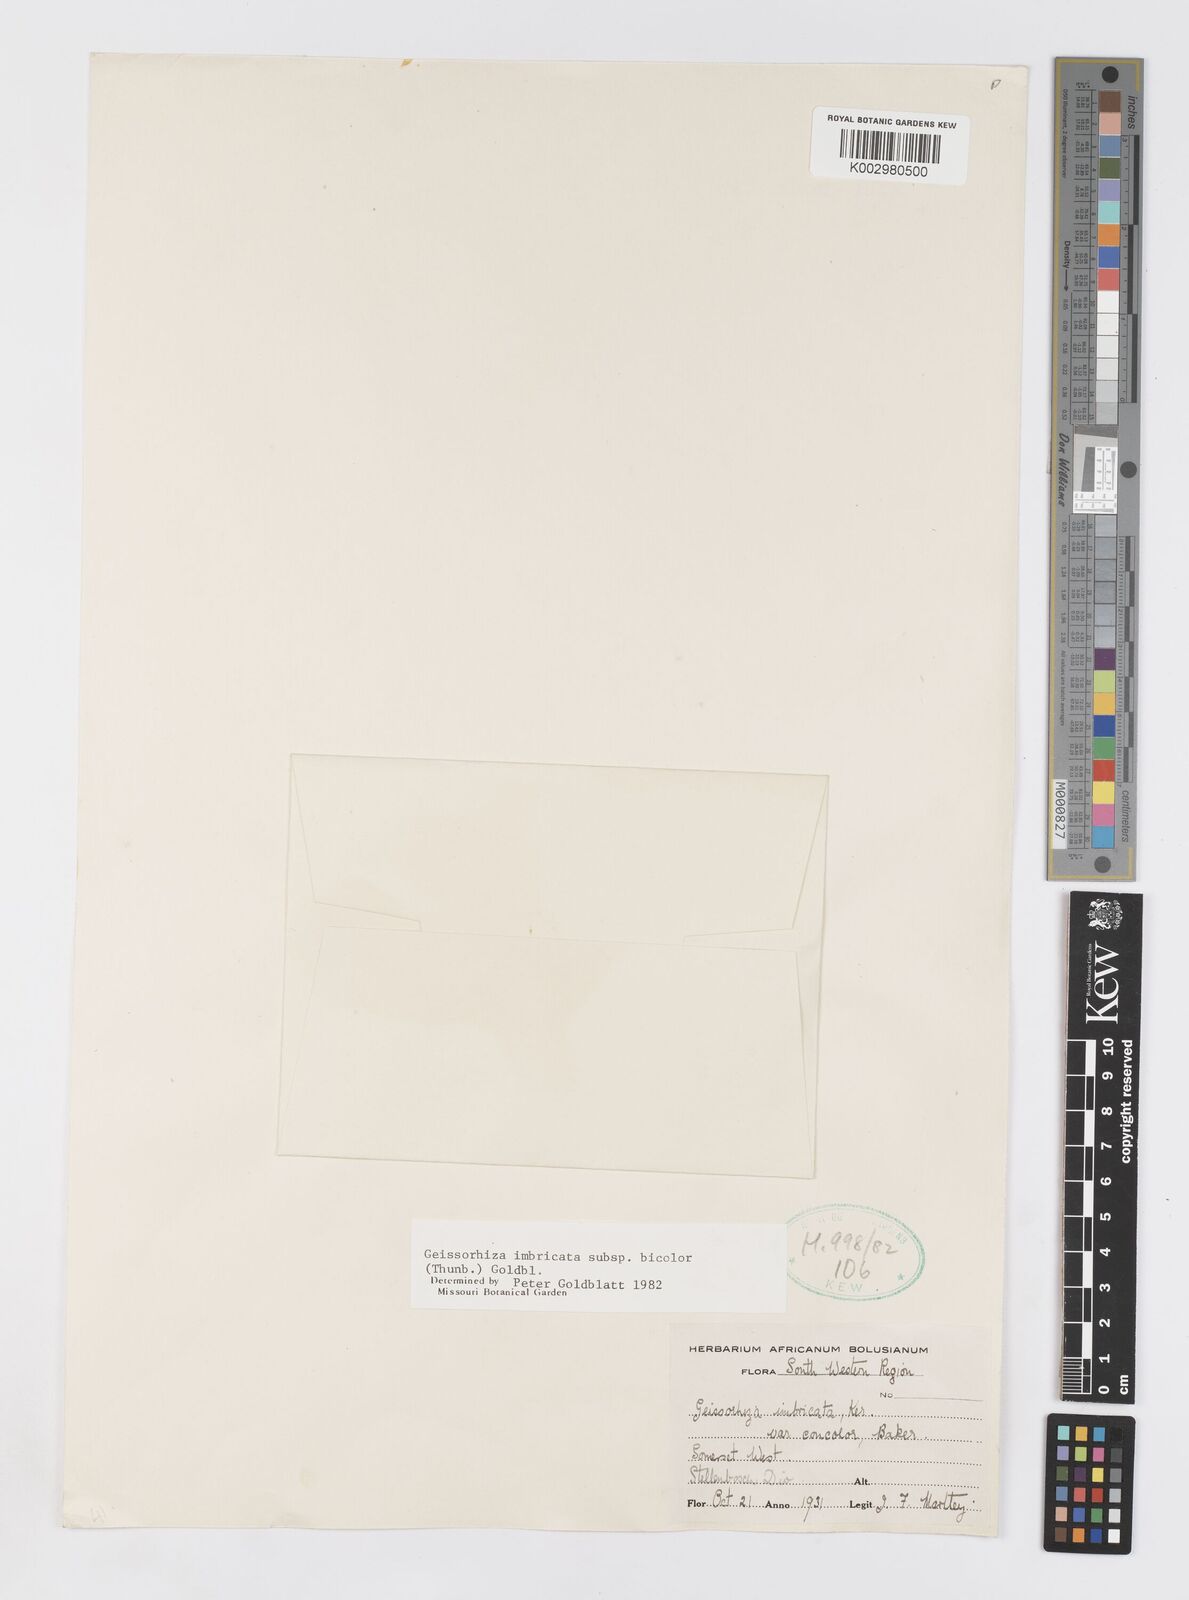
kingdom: Plantae
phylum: Tracheophyta
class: Liliopsida
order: Asparagales
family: Iridaceae
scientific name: Iridaceae
